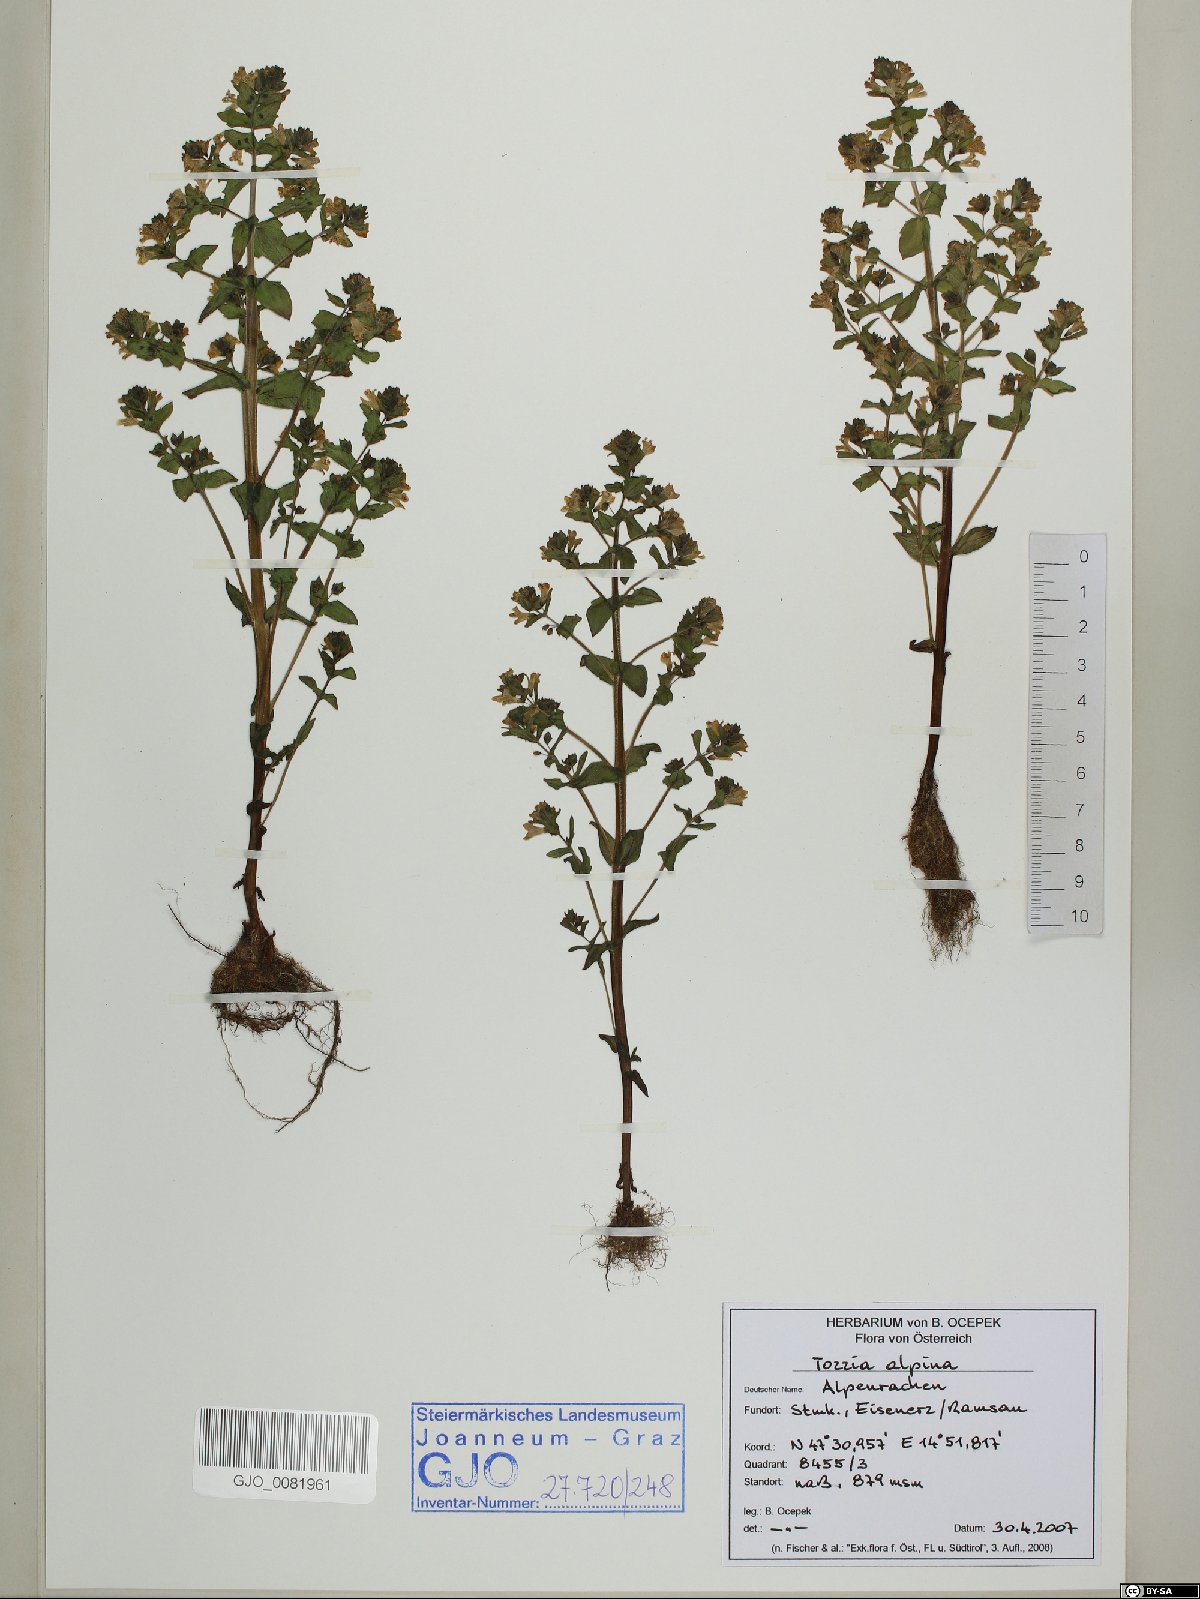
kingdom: Plantae
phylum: Tracheophyta
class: Magnoliopsida
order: Lamiales
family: Orobanchaceae
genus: Tozzia
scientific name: Tozzia alpina
